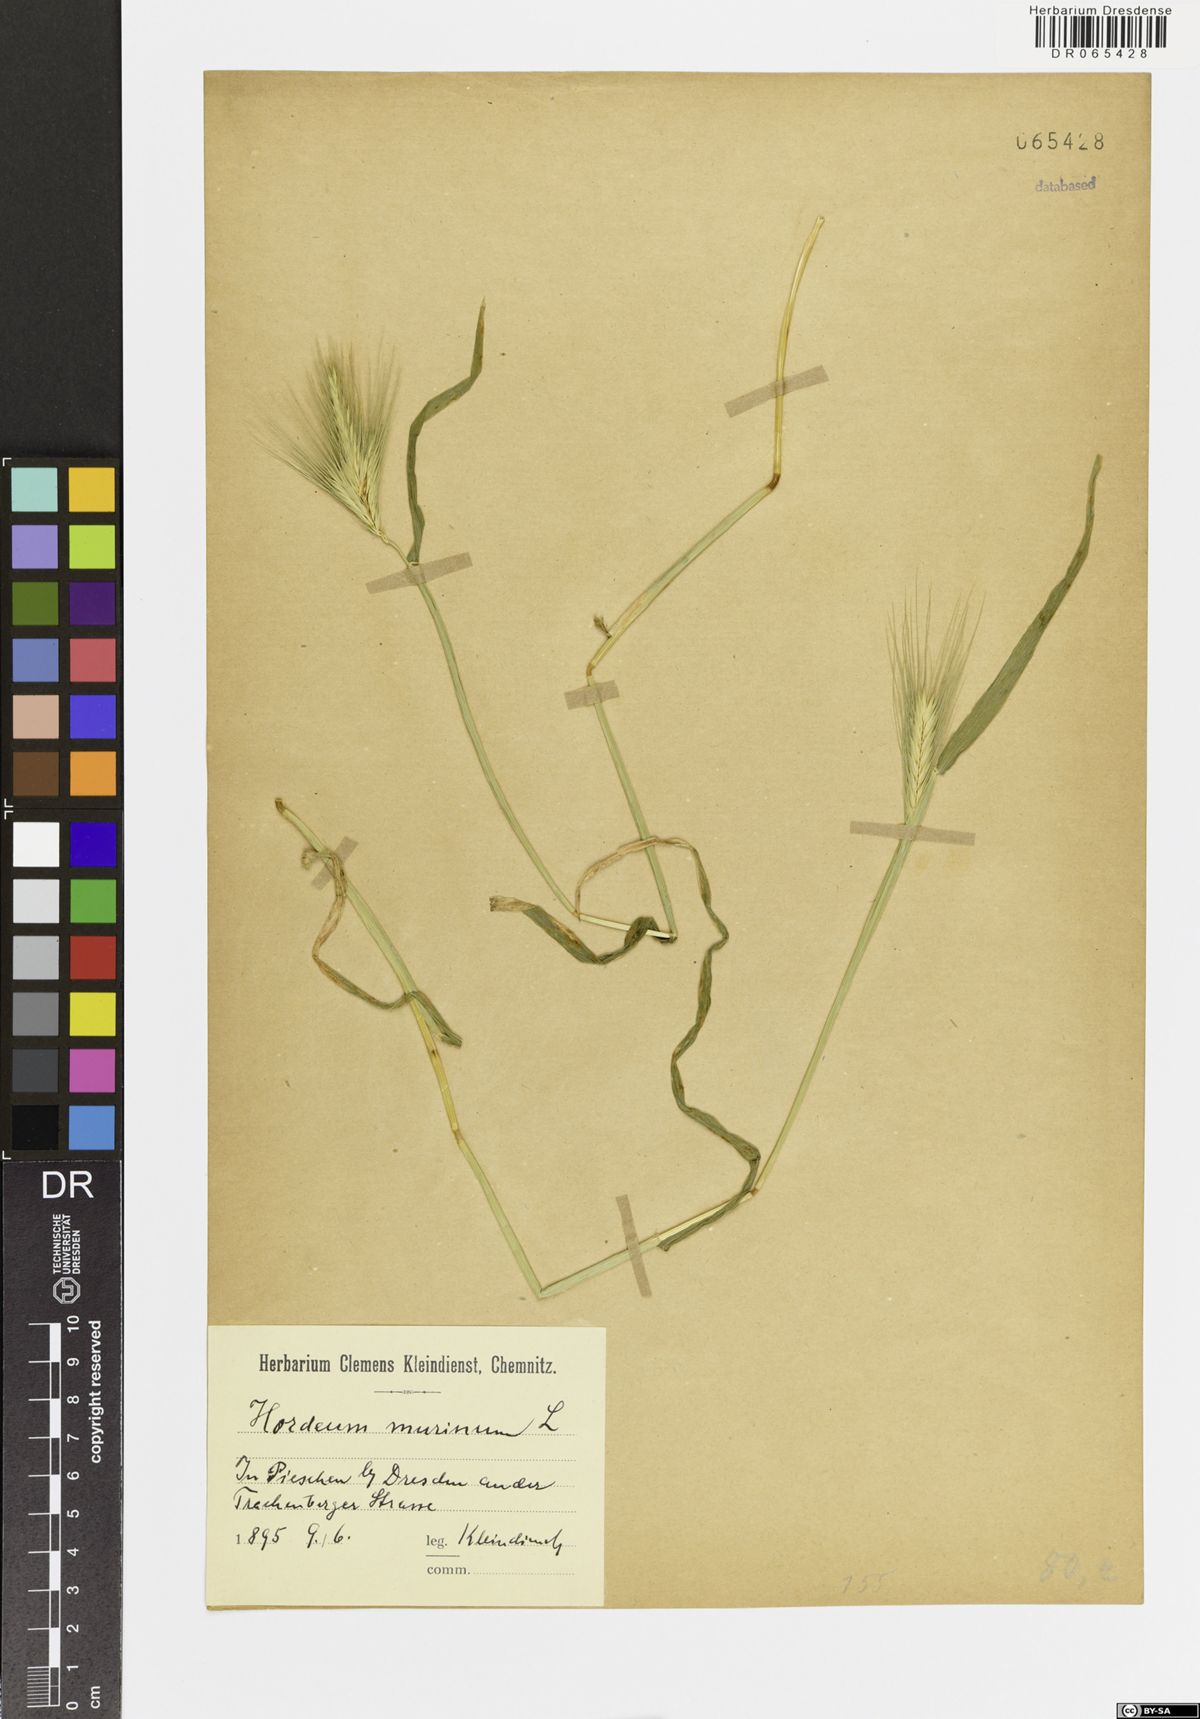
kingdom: Plantae
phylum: Tracheophyta
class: Liliopsida
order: Poales
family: Poaceae
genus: Hordeum
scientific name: Hordeum murinum
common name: Wall barley
